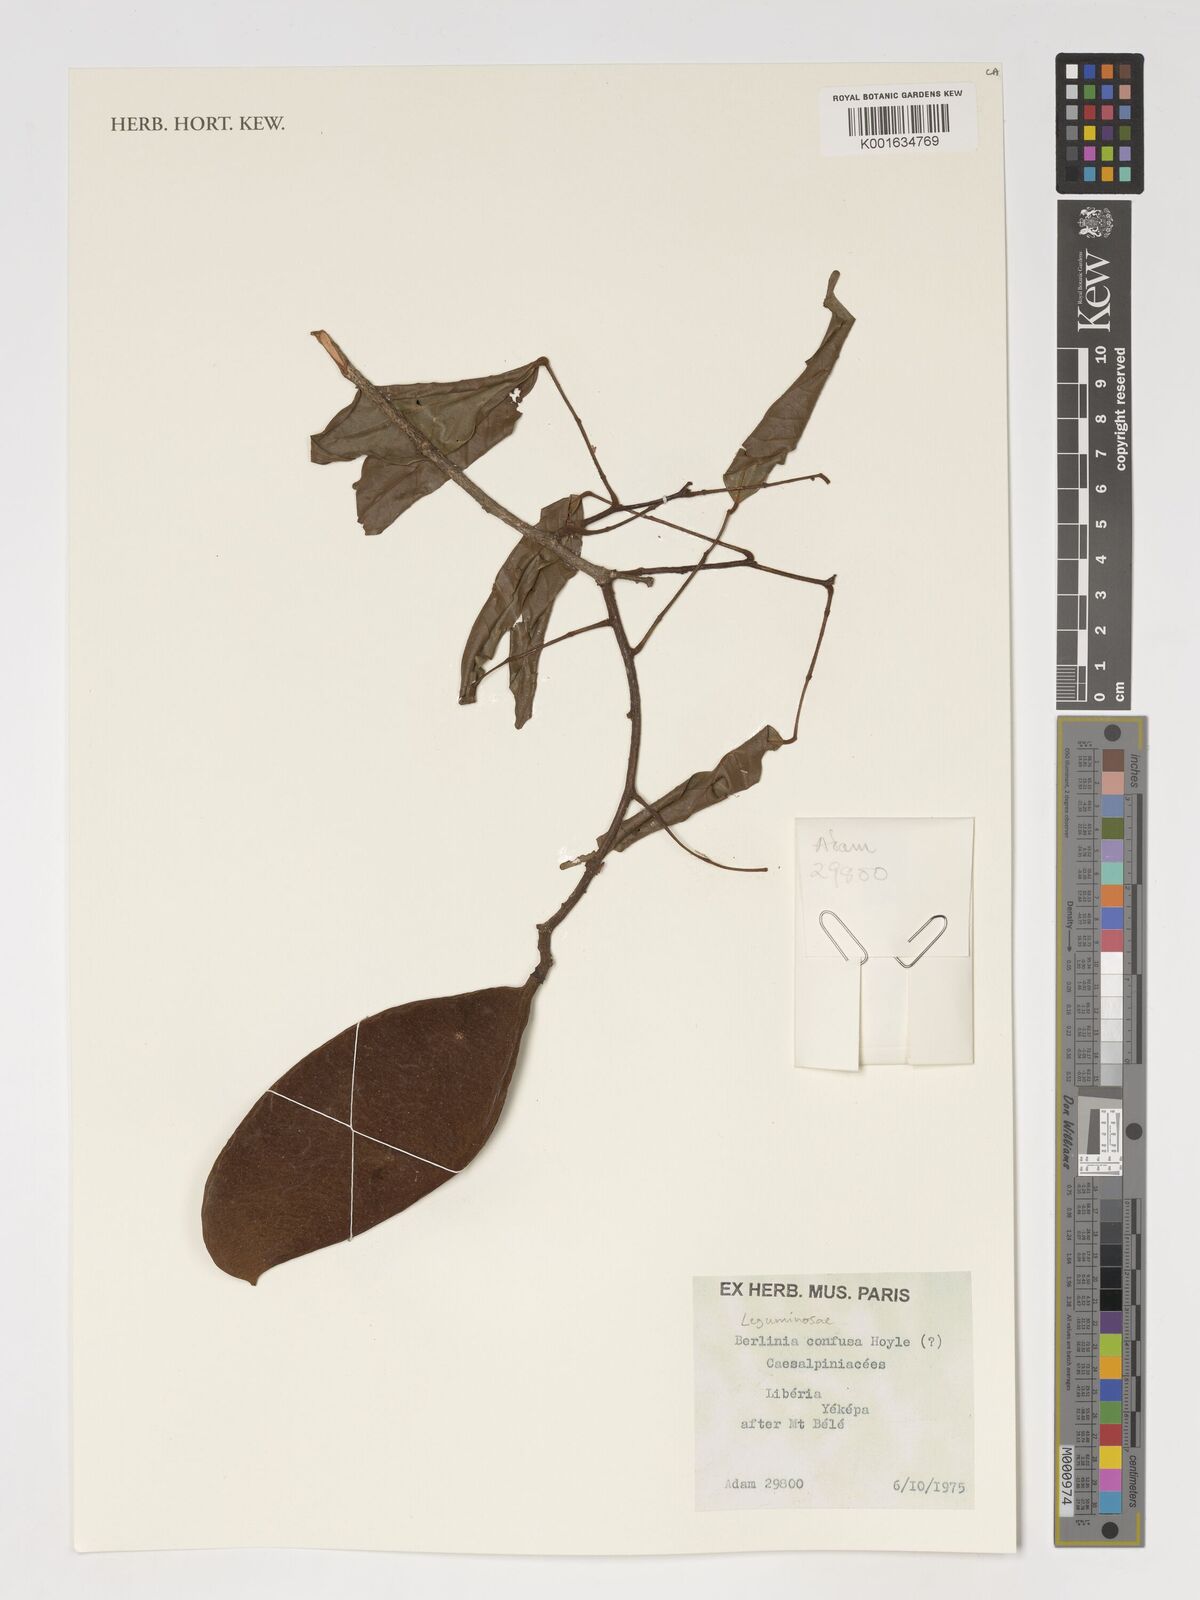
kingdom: Plantae
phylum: Tracheophyta
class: Magnoliopsida
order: Fabales
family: Fabaceae
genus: Berlinia
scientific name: Berlinia confusa
